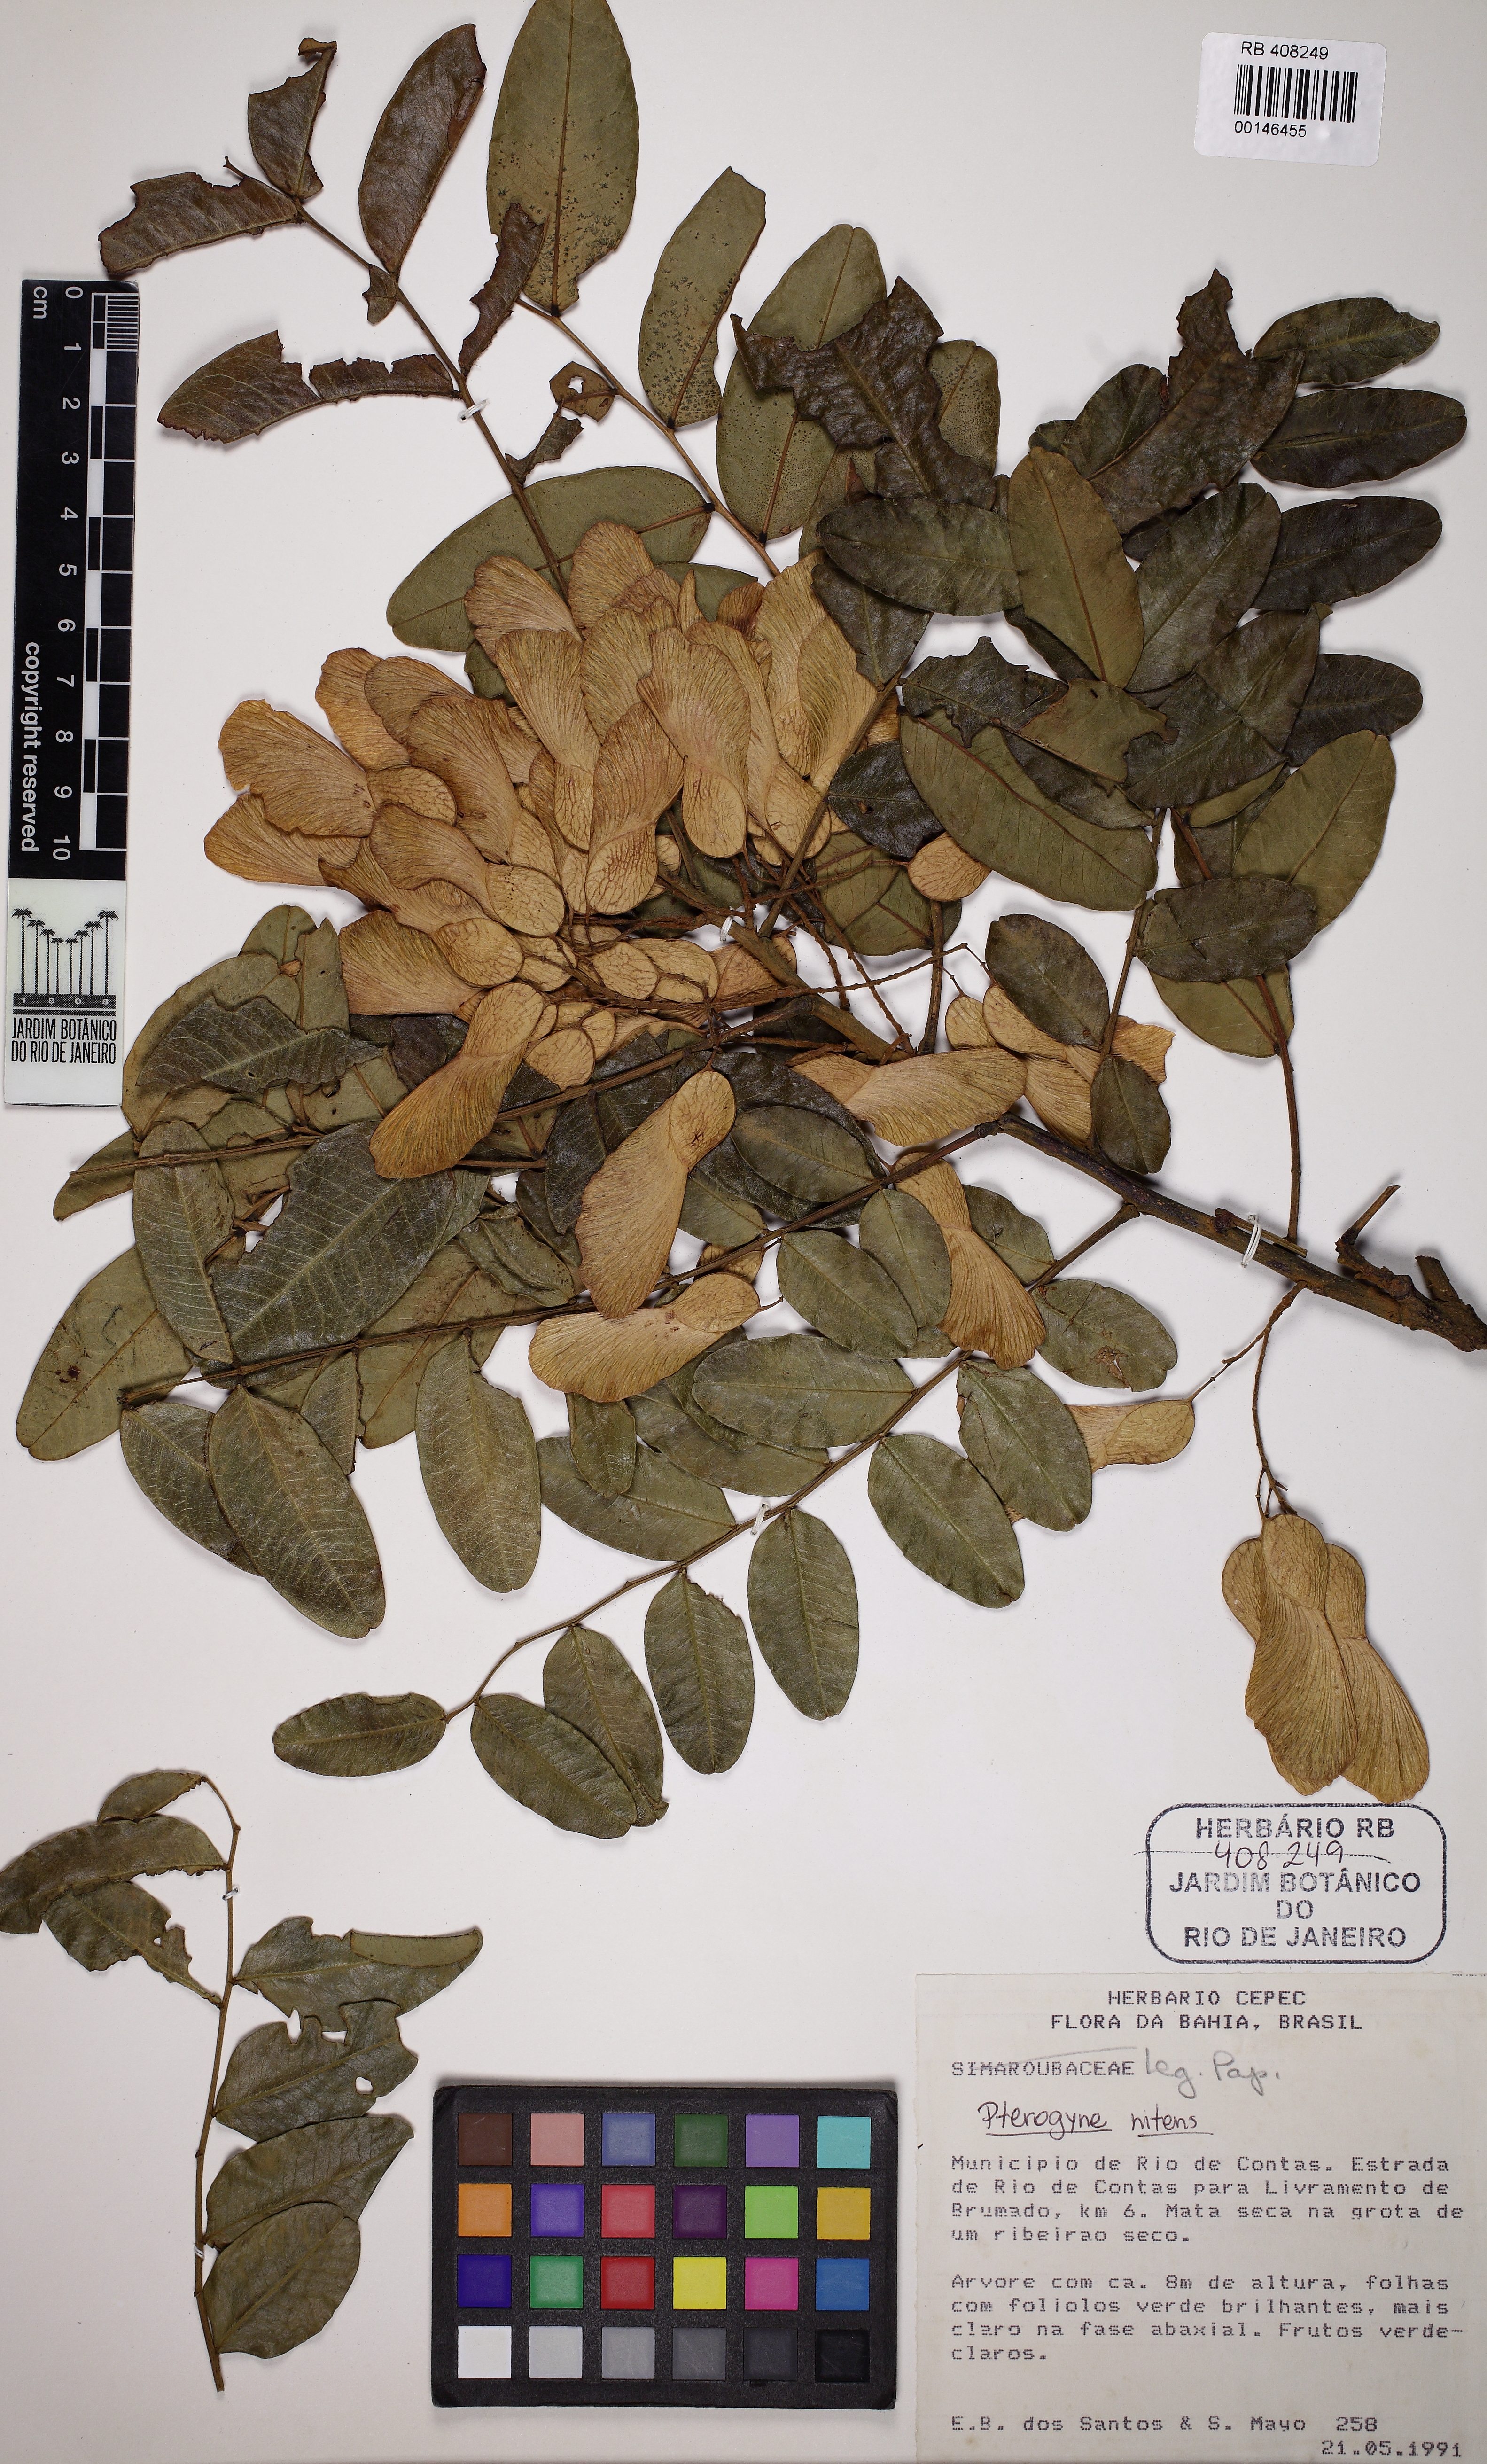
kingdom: Plantae
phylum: Tracheophyta
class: Magnoliopsida
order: Fabales
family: Fabaceae
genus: Pterogyne
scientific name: Pterogyne nitens
